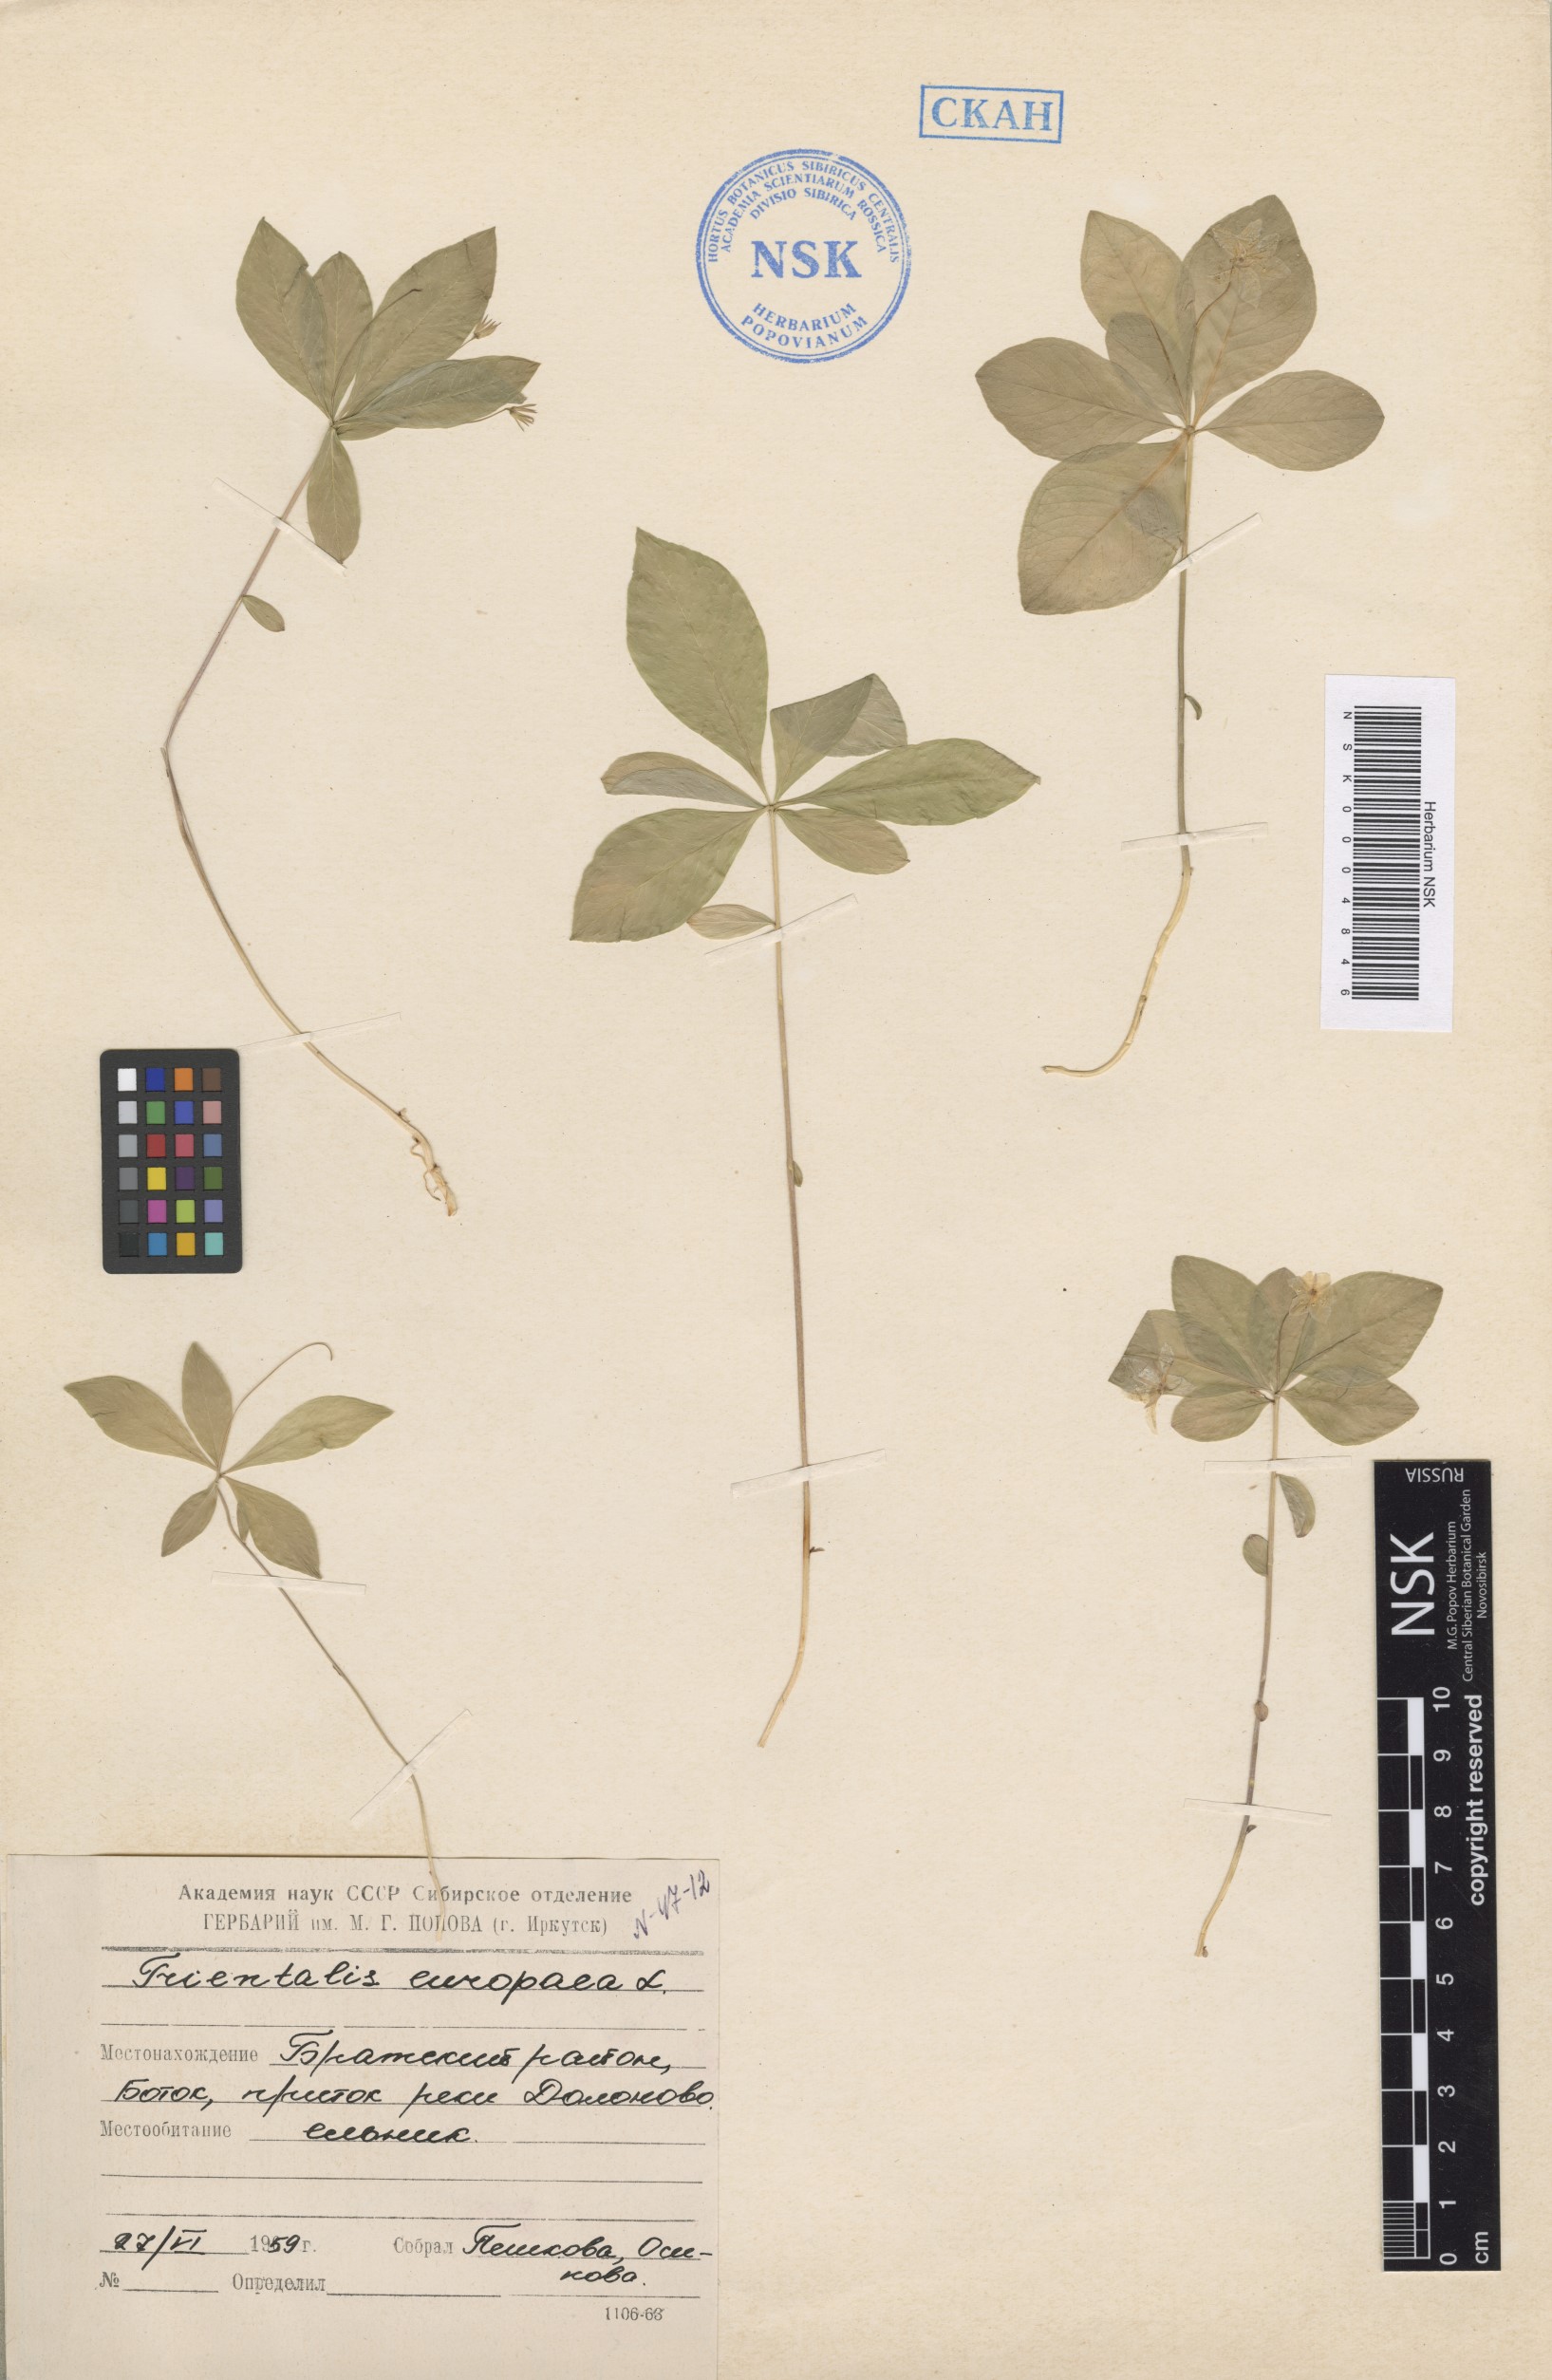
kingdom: Plantae
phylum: Tracheophyta
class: Magnoliopsida
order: Ericales
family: Primulaceae
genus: Lysimachia
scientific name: Lysimachia europaea
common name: Arctic starflower
